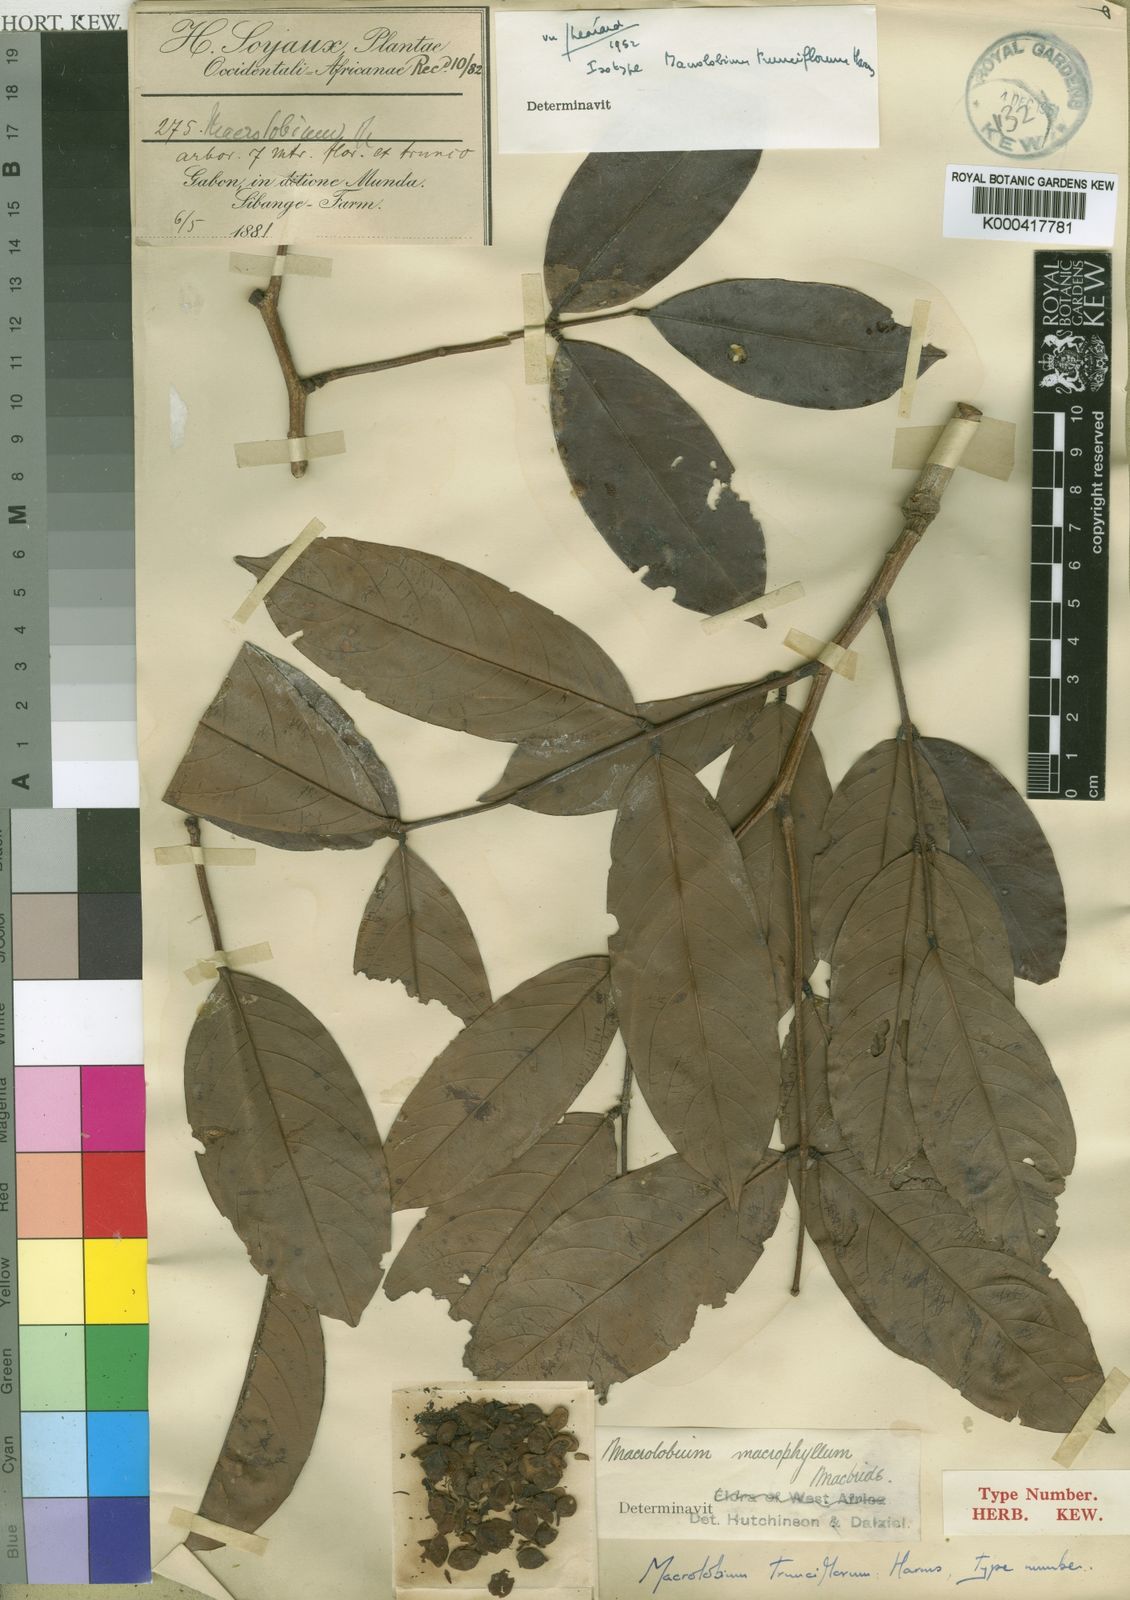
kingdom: Plantae
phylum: Tracheophyta
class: Magnoliopsida
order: Fabales
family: Fabaceae
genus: Anthonotha
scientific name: Anthonotha
